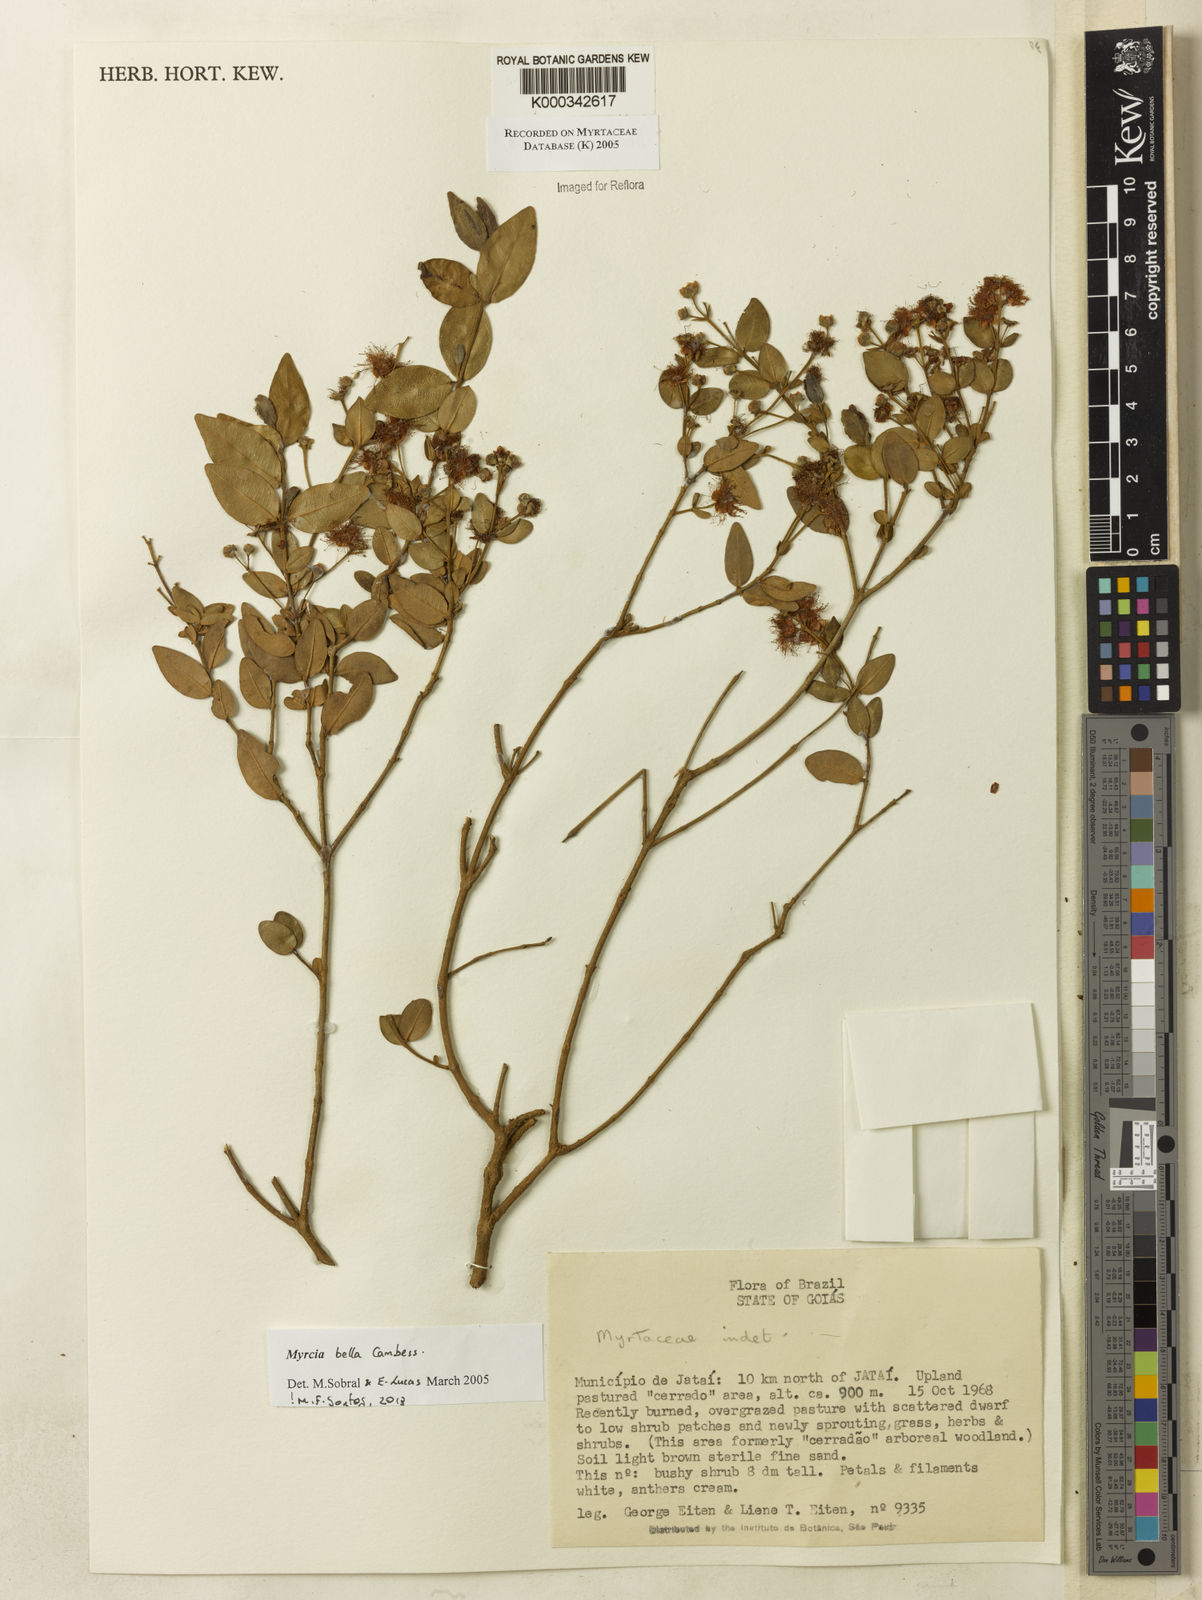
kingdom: Plantae
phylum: Tracheophyta
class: Magnoliopsida
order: Myrtales
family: Myrtaceae
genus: Myrcia
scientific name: Myrcia bella
